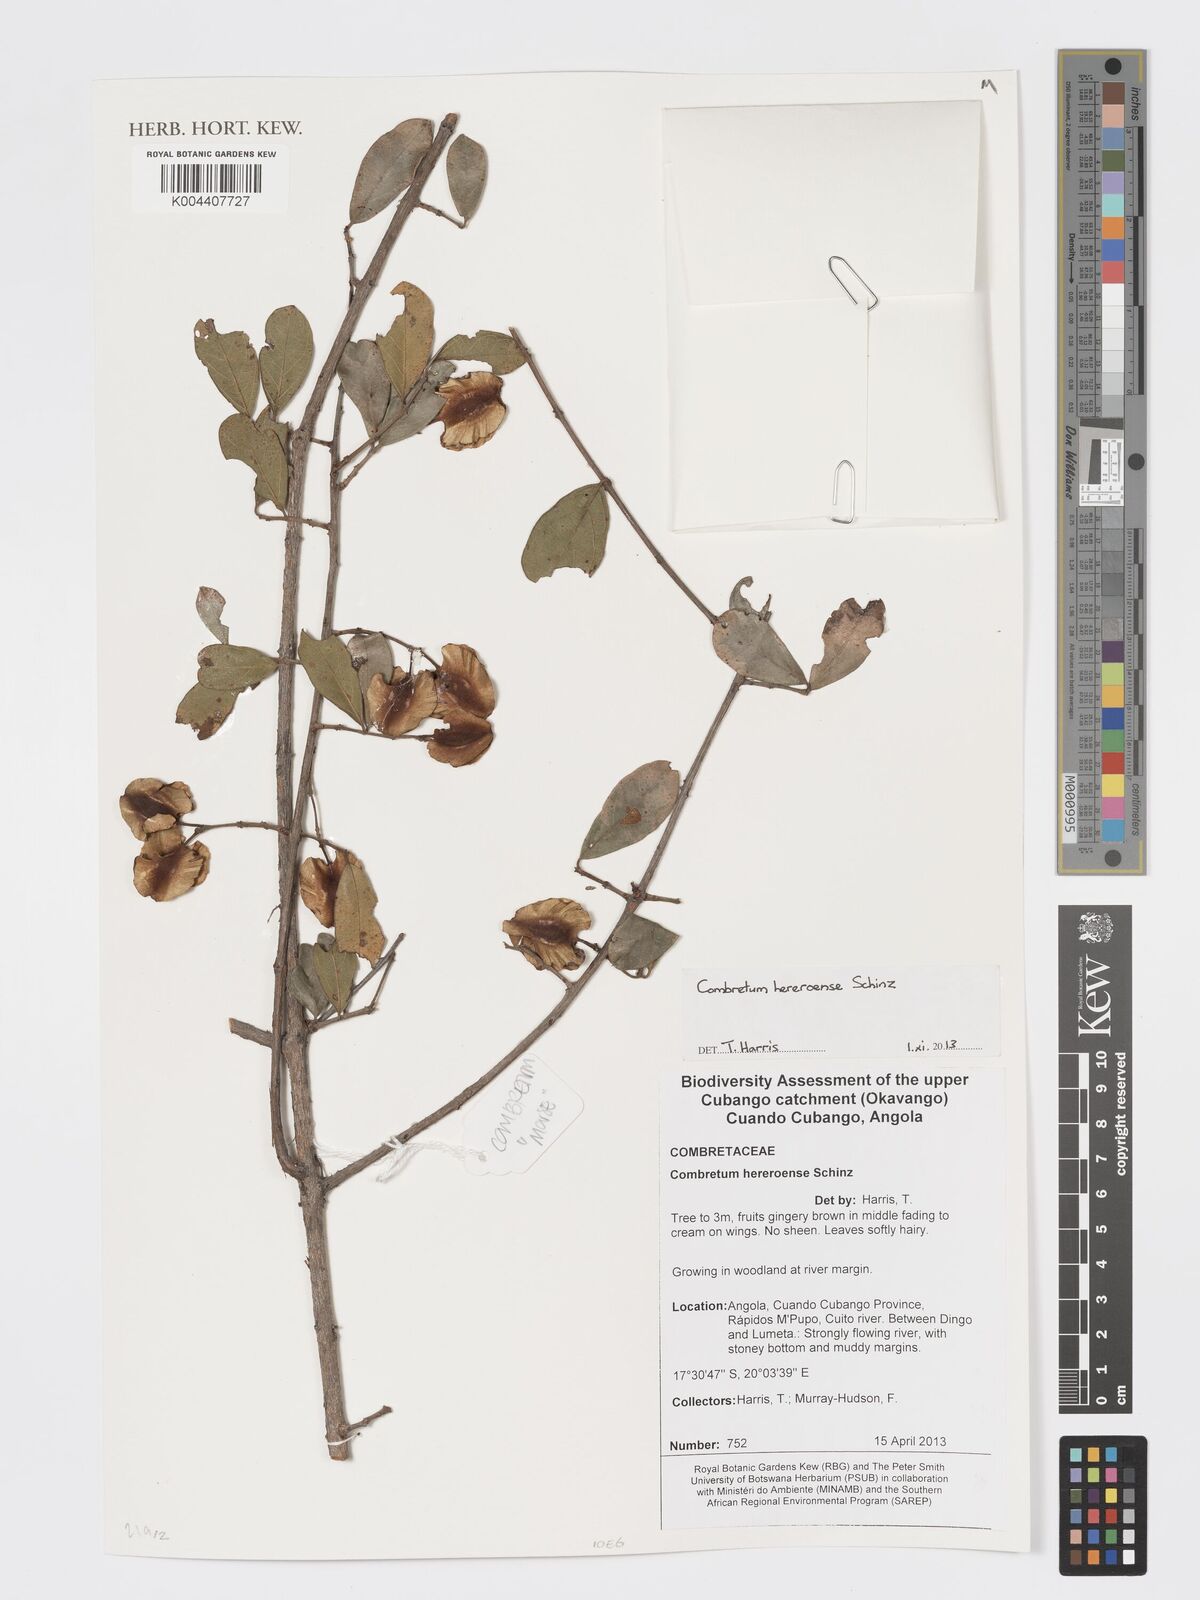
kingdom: Plantae
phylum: Tracheophyta
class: Magnoliopsida
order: Myrtales
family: Combretaceae
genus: Combretum
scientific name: Combretum hereroense
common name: Russet bushwillow
